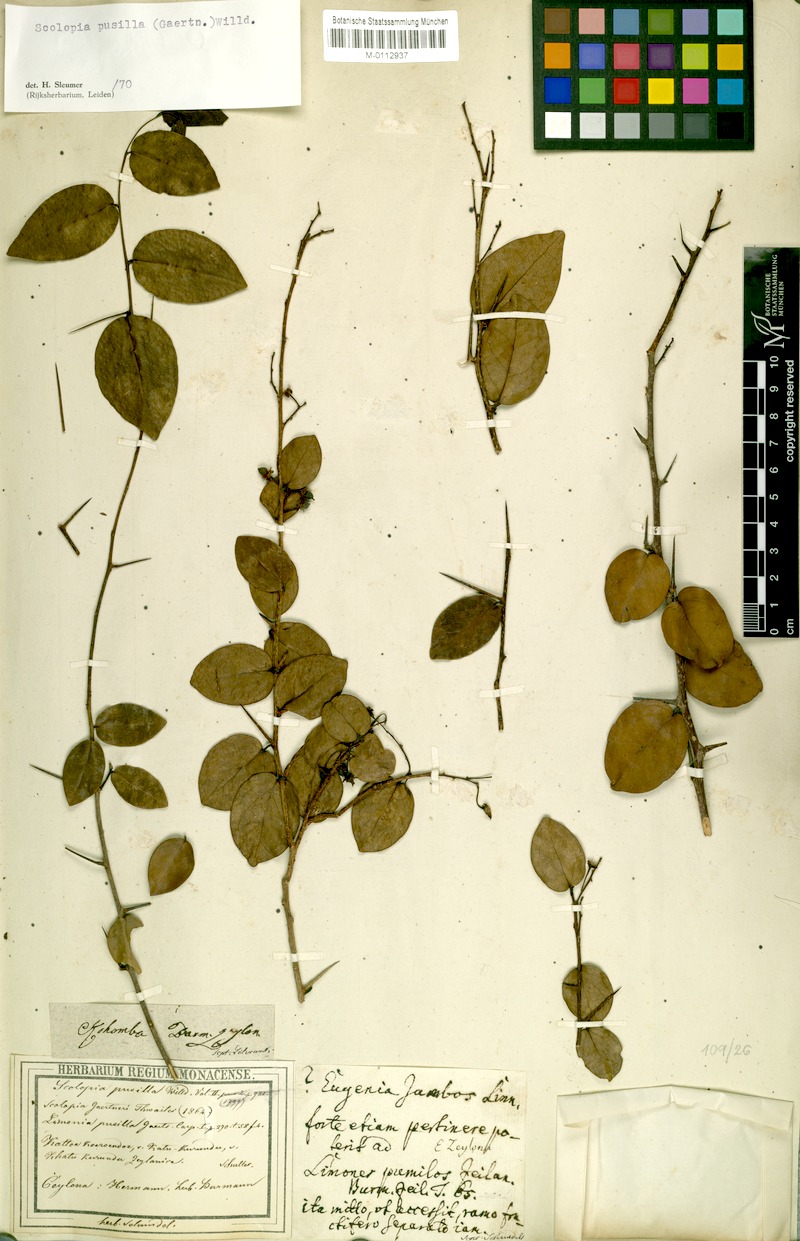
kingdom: Plantae
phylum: Tracheophyta
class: Magnoliopsida
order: Malpighiales
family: Salicaceae
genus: Scolopia
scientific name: Scolopia pusilla
